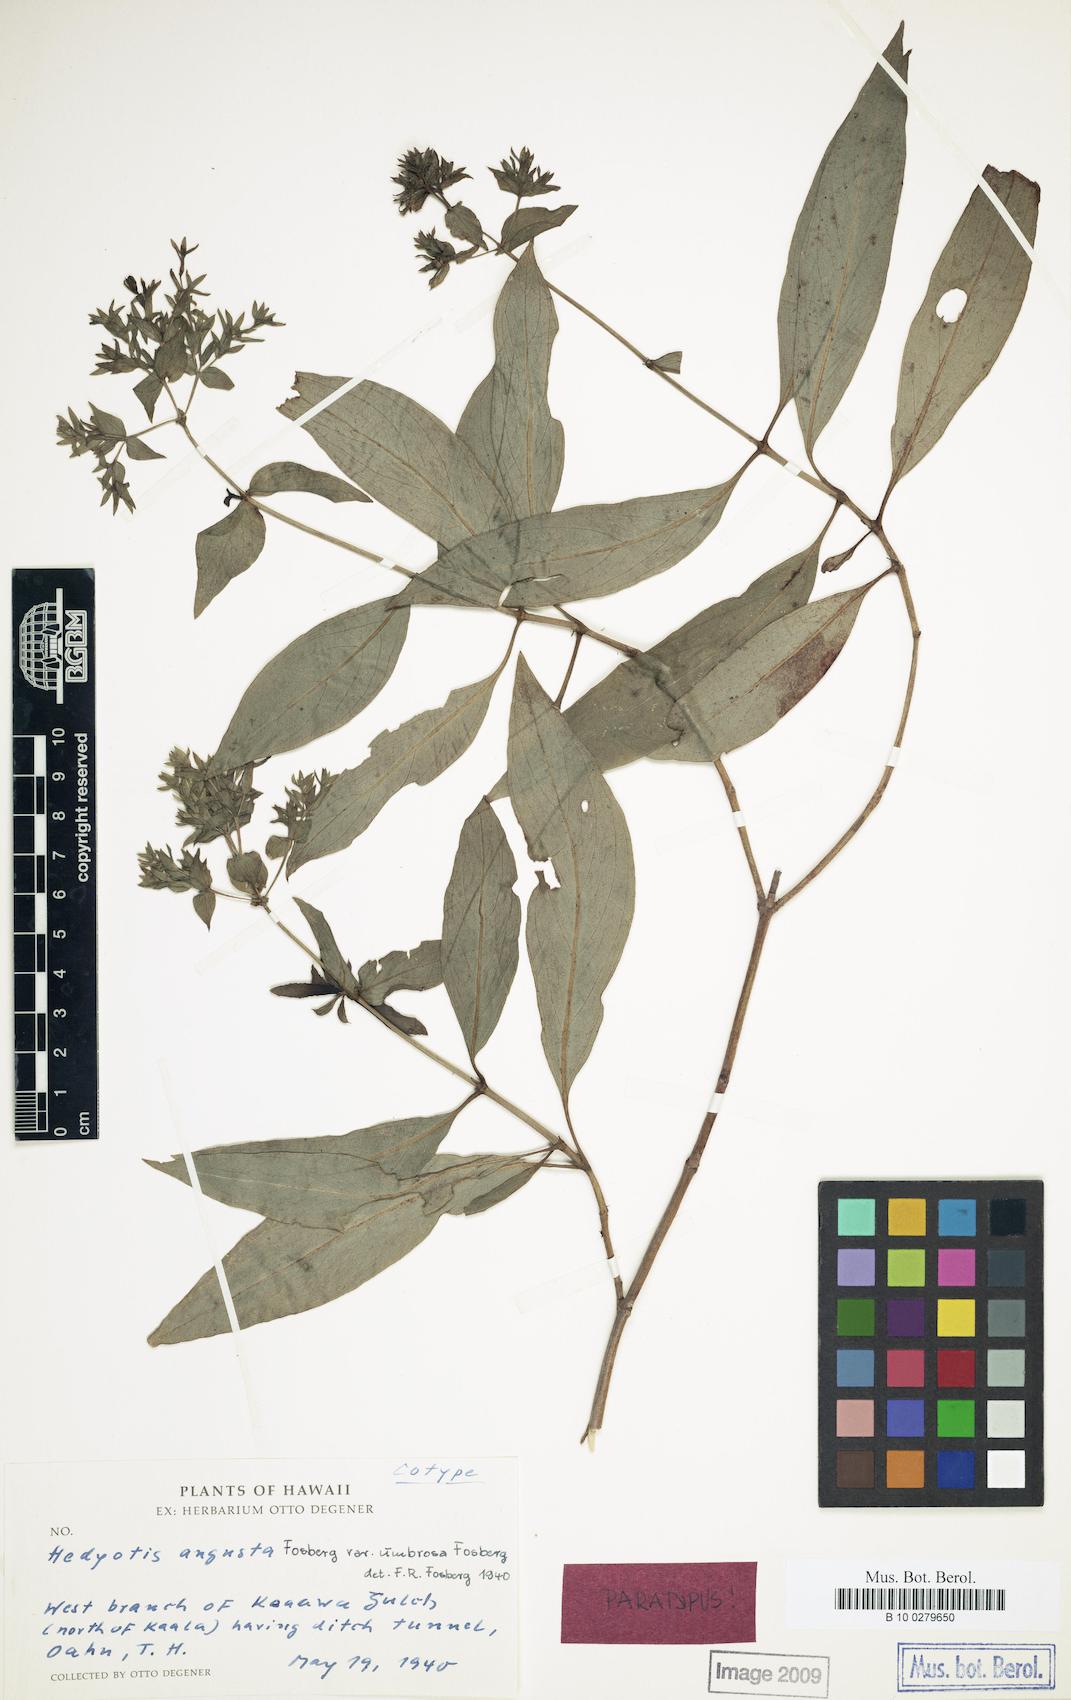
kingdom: Plantae
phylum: Tracheophyta
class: Magnoliopsida
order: Gentianales
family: Rubiaceae
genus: Kadua
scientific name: Kadua cordata
